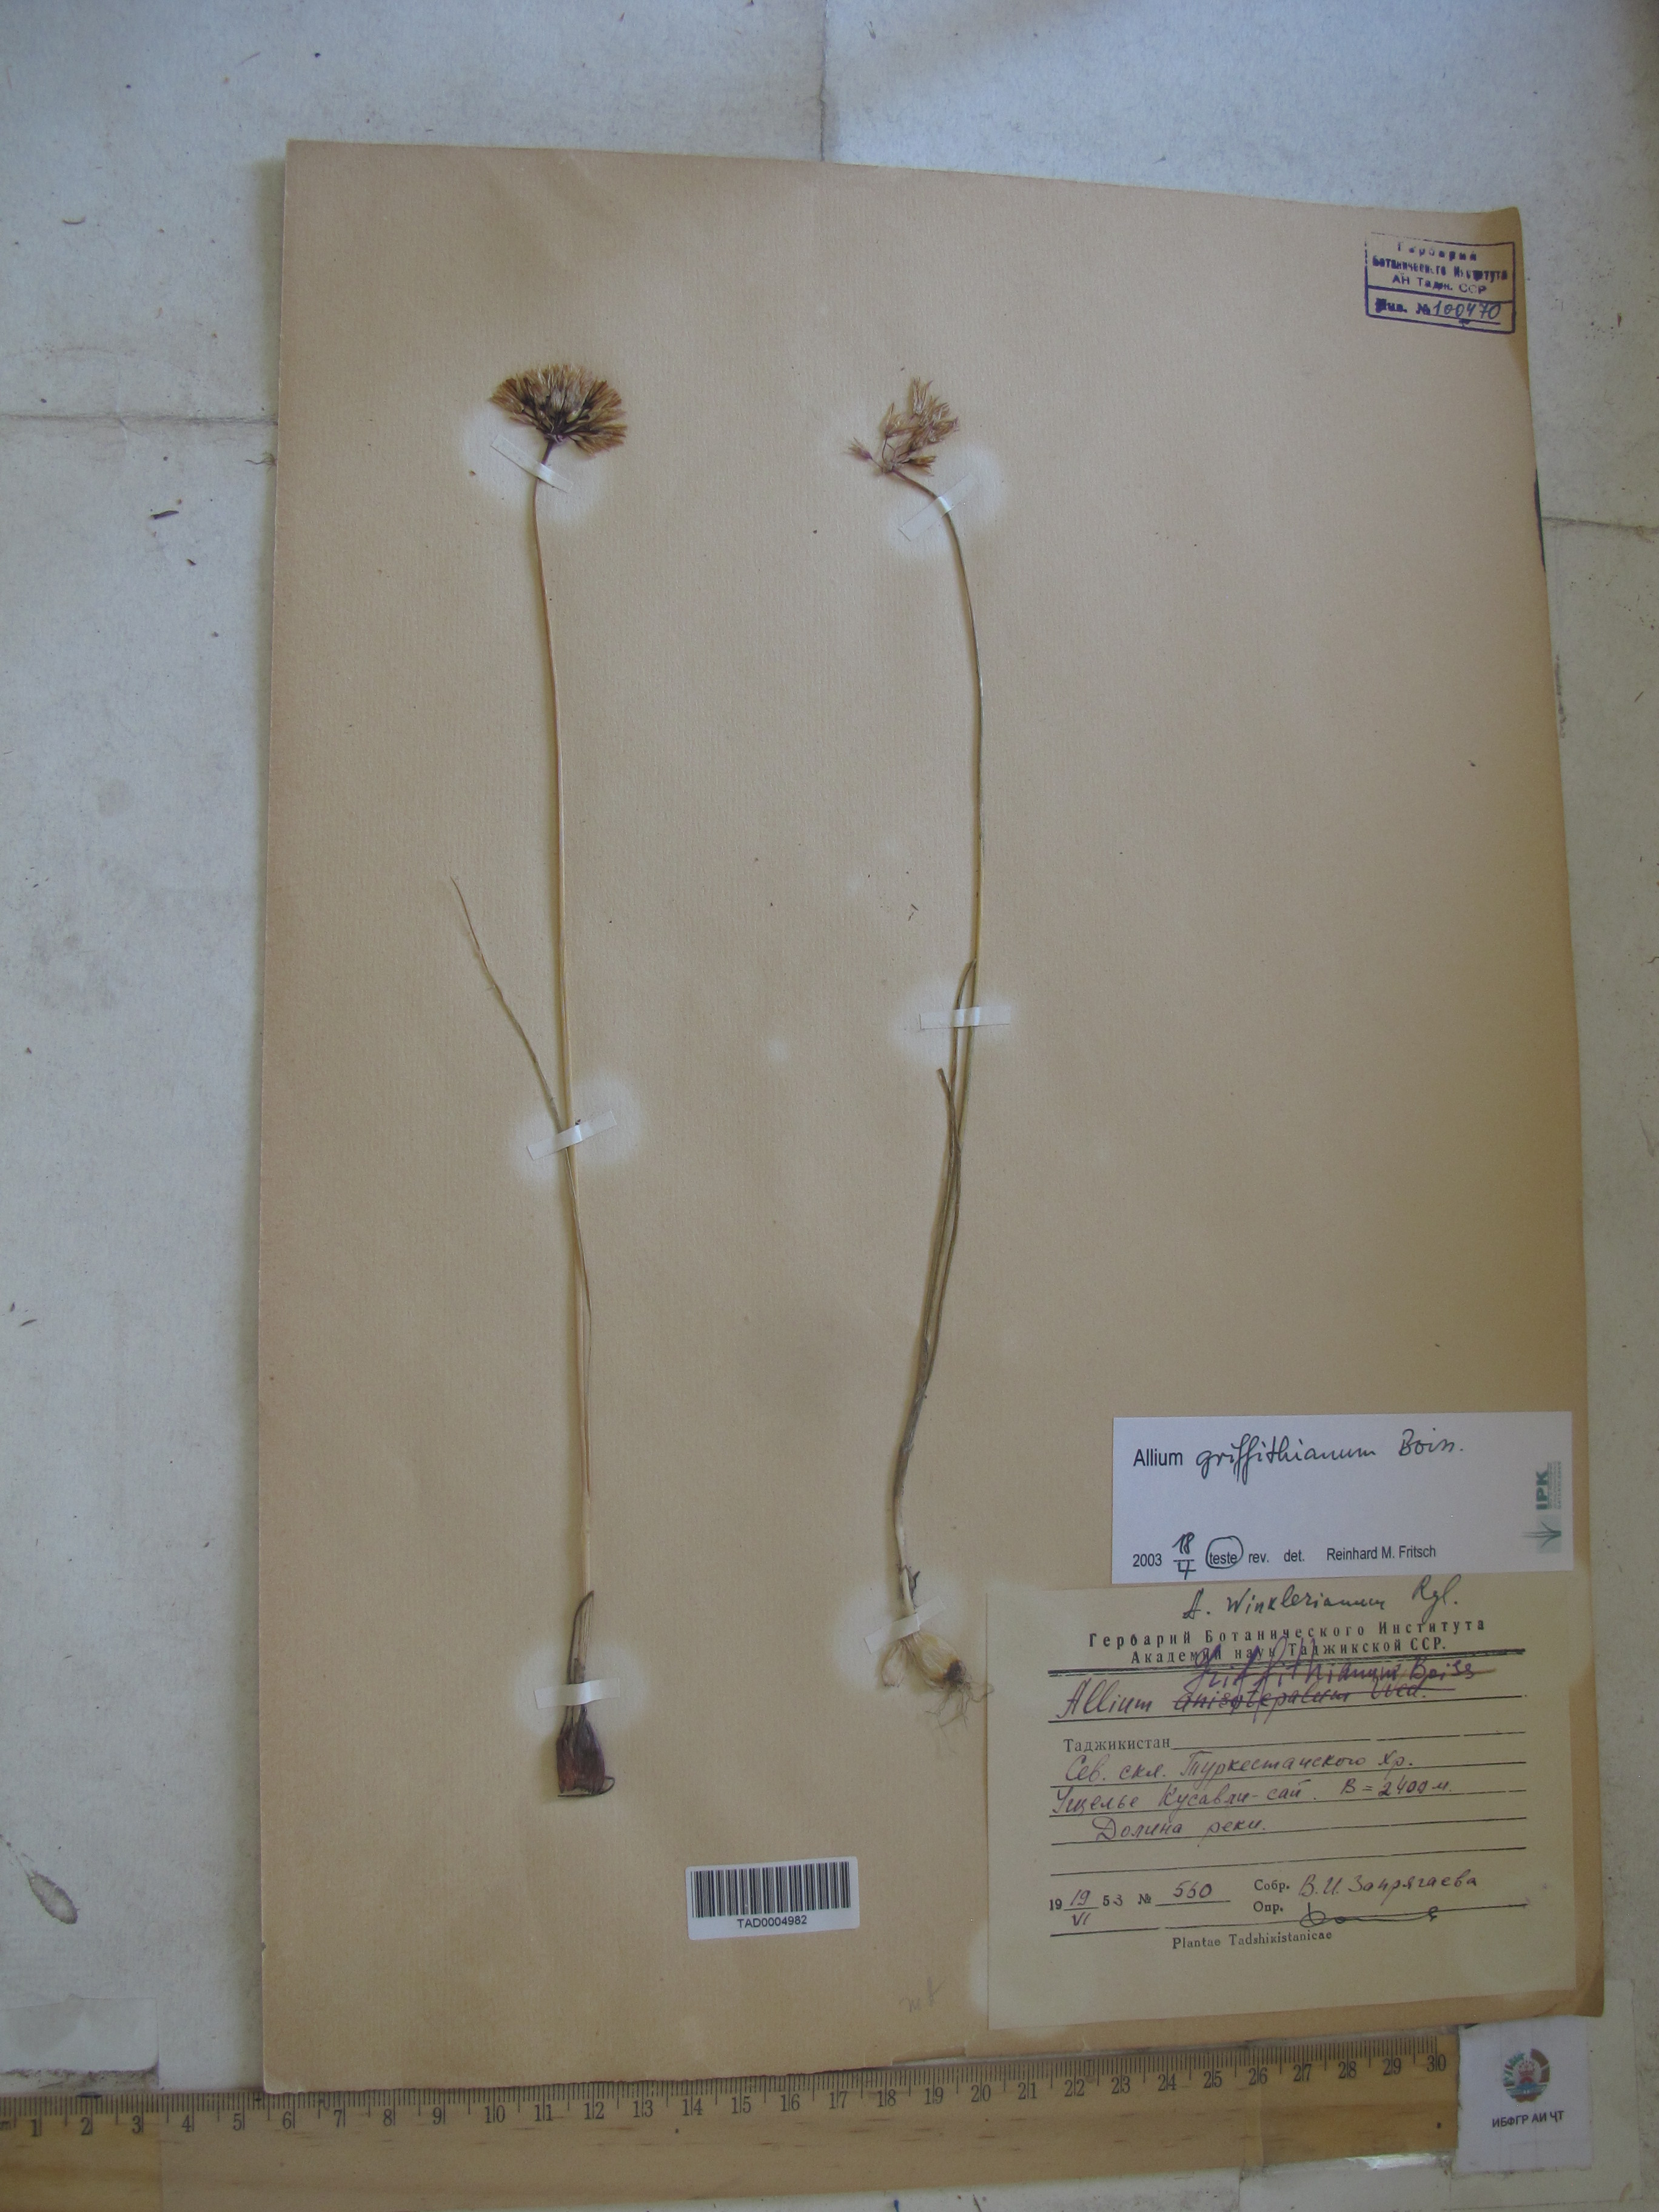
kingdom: Plantae
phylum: Tracheophyta
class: Liliopsida
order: Asparagales
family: Amaryllidaceae
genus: Allium
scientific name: Allium griffithianum
